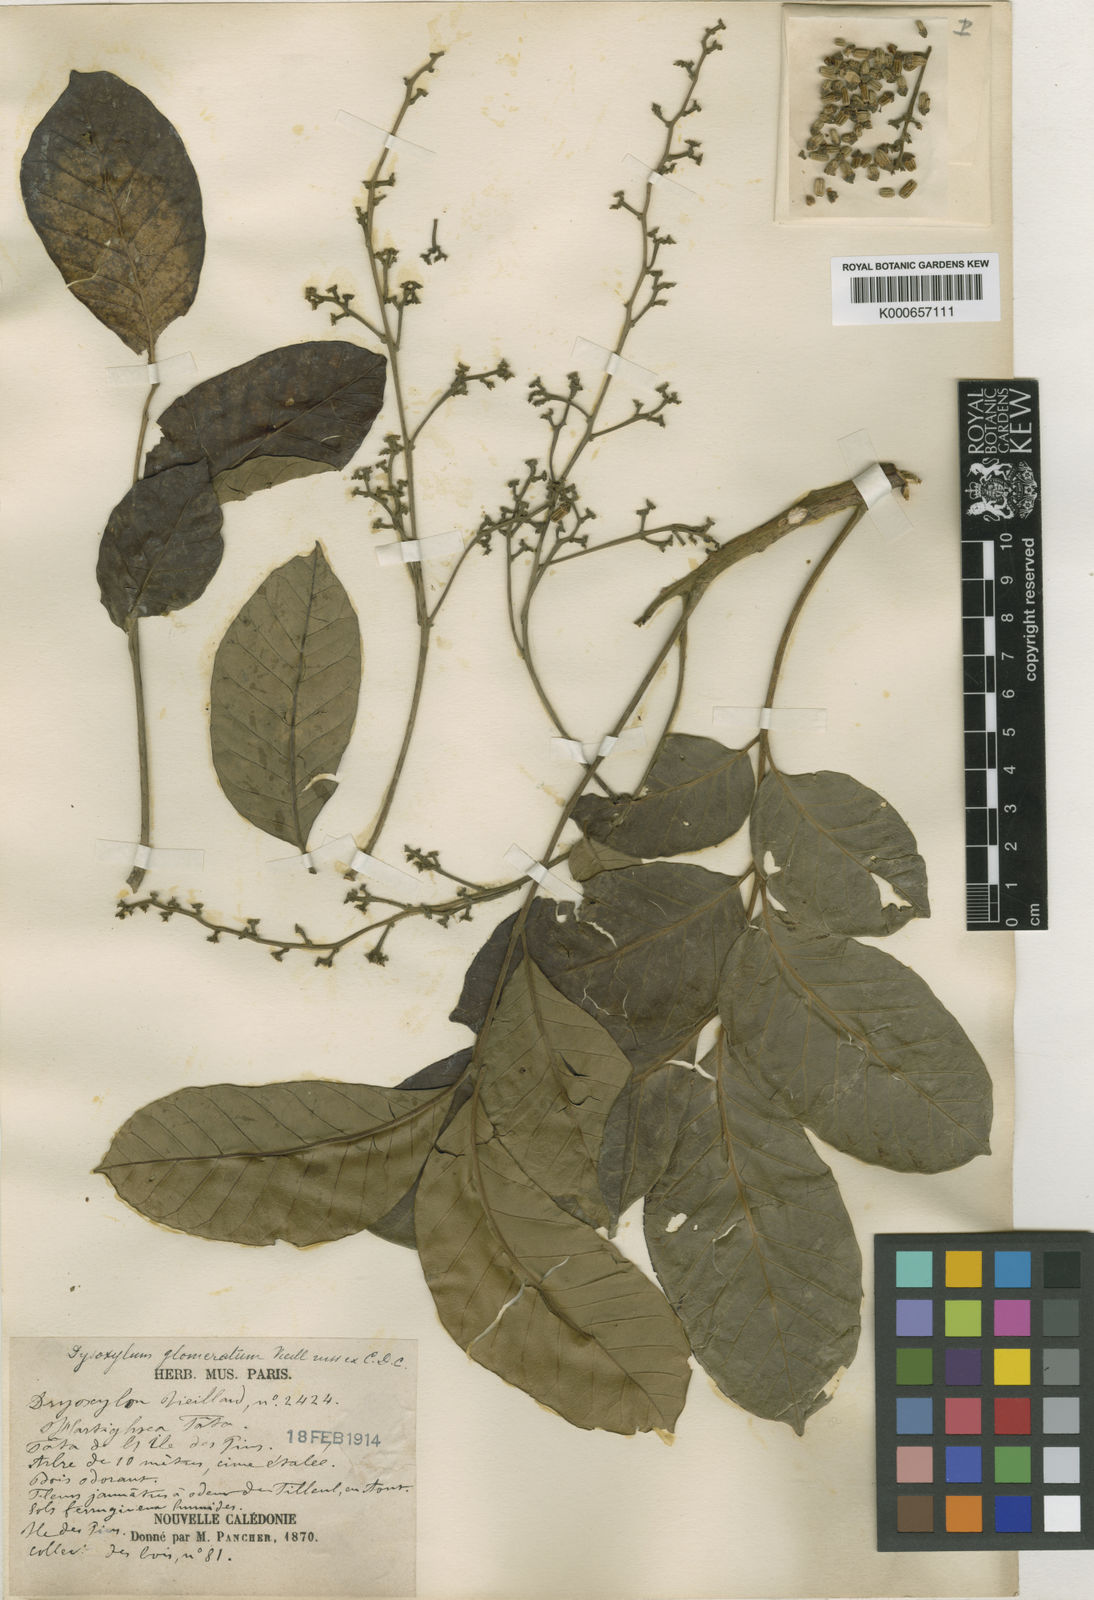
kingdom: Plantae
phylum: Tracheophyta
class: Magnoliopsida
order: Sapindales
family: Meliaceae
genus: Didymocheton
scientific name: Didymocheton rufescens
